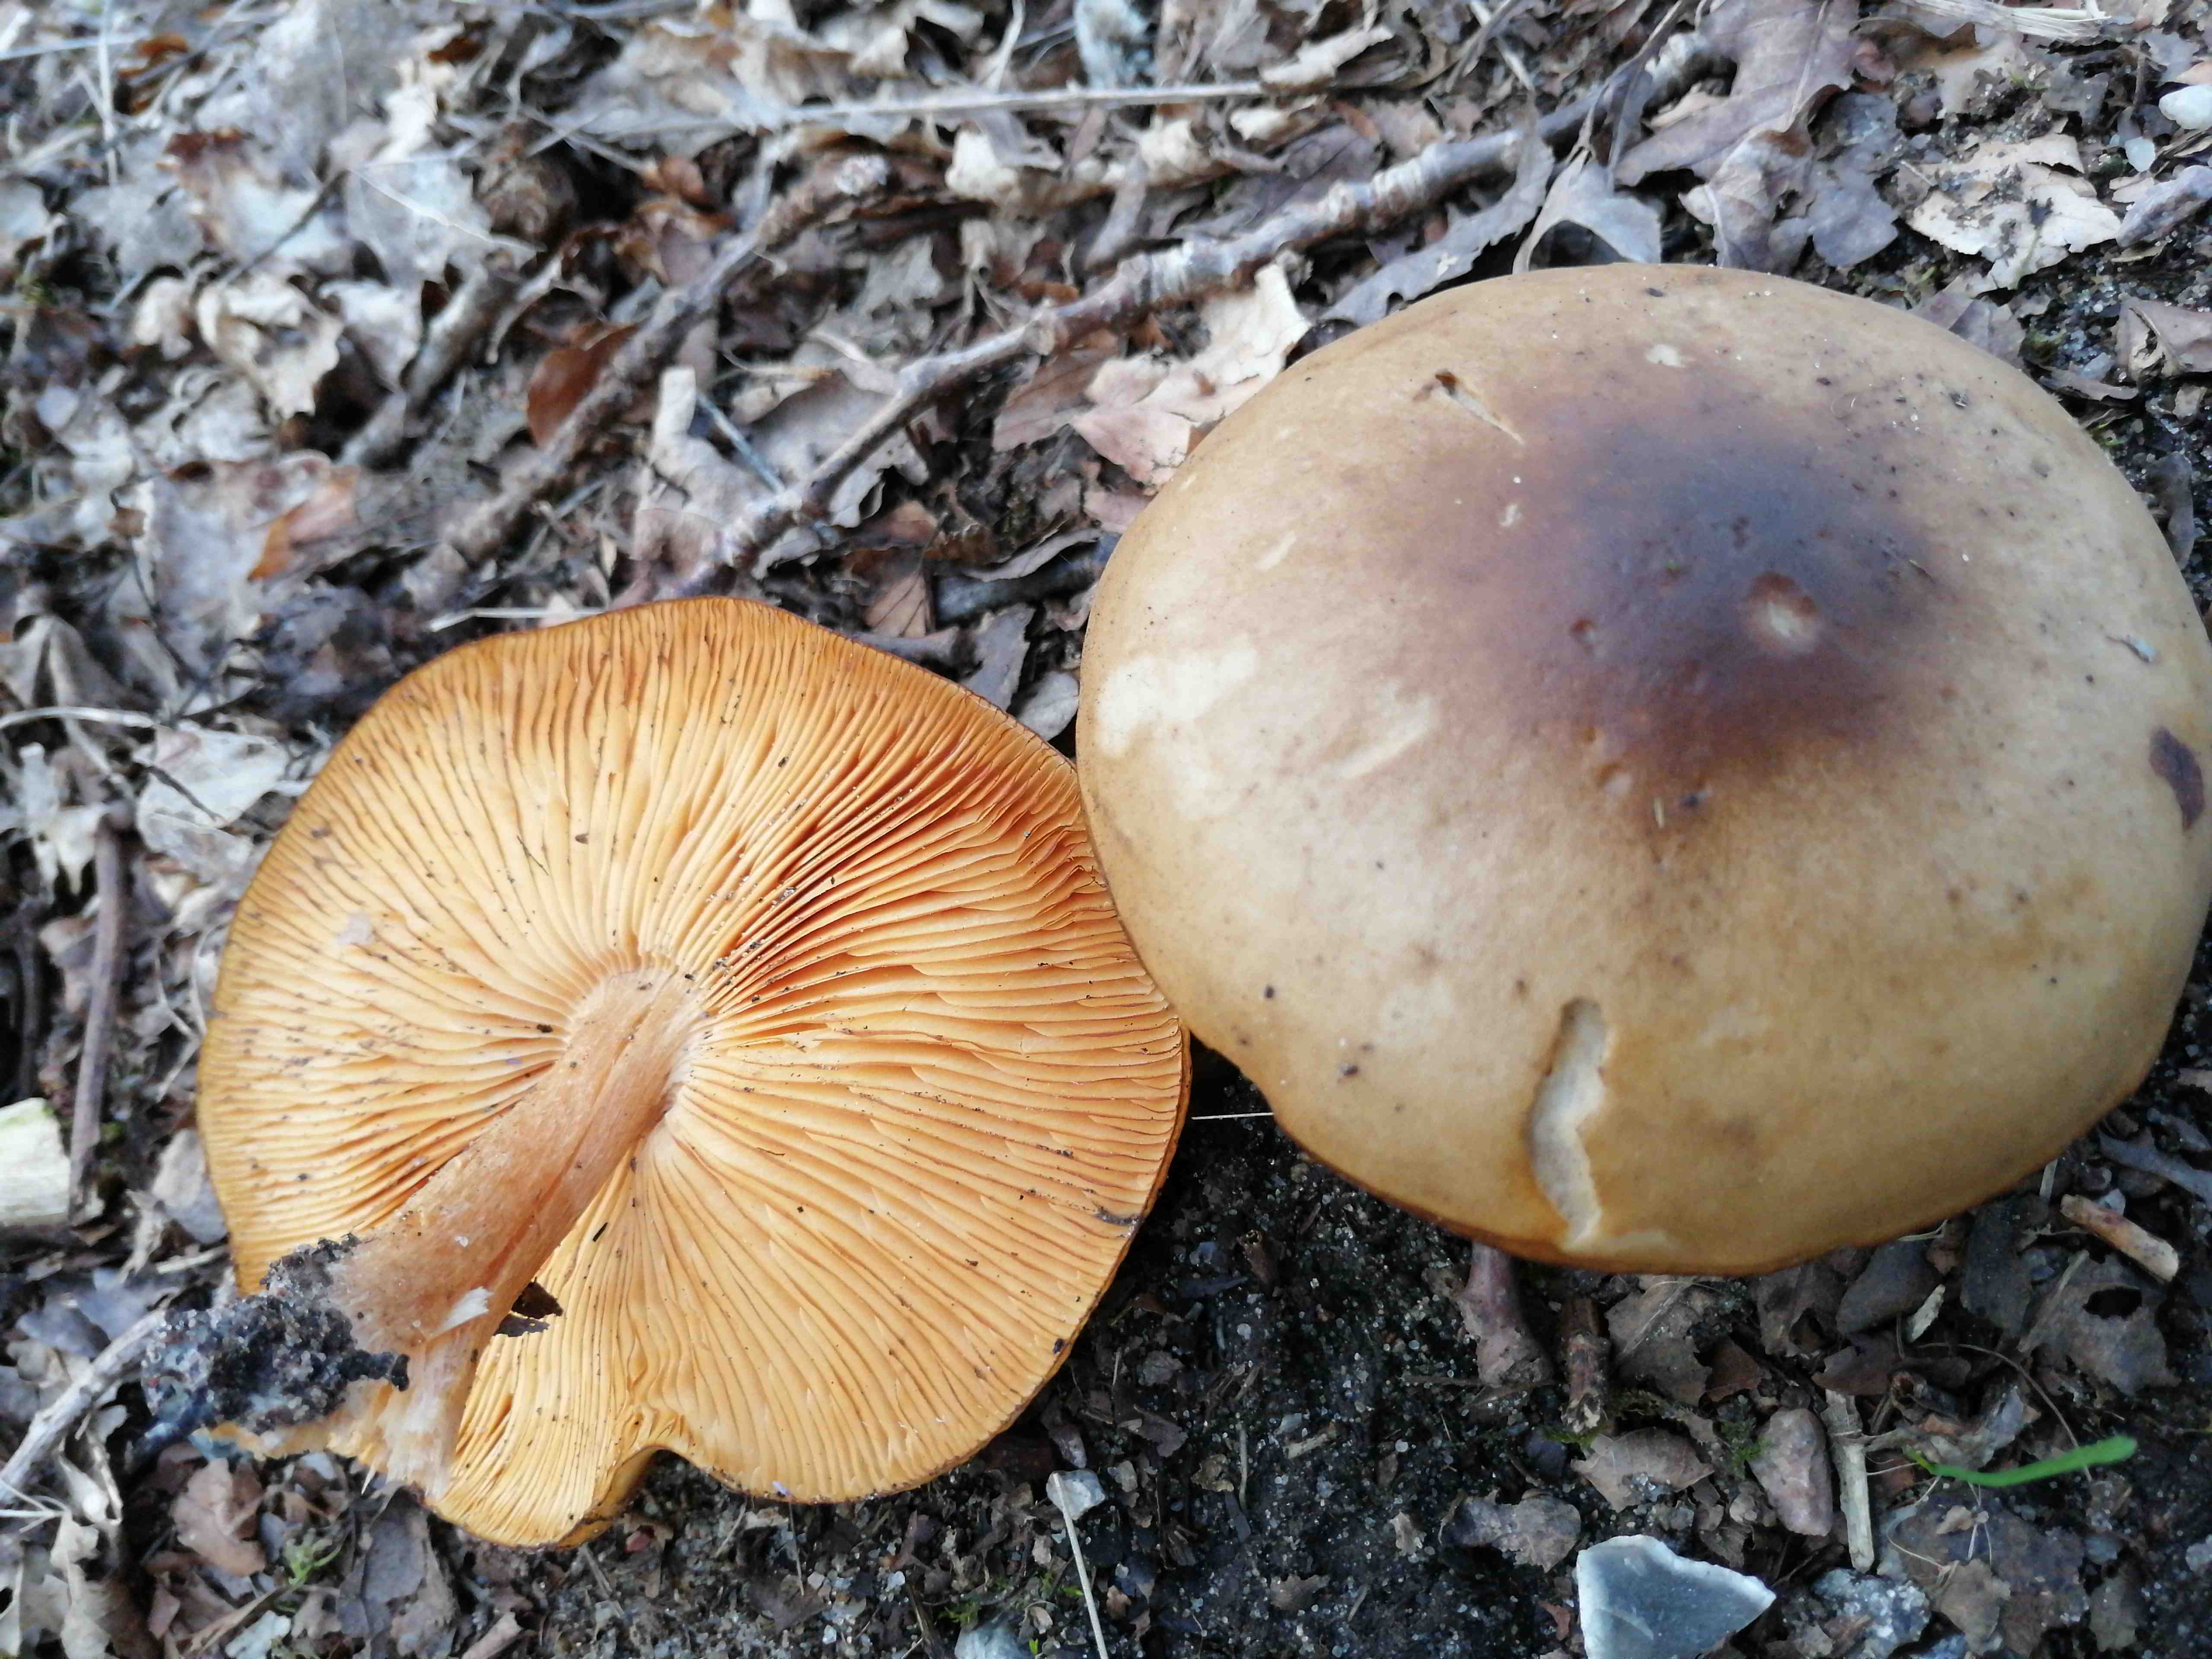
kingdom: Fungi
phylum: Basidiomycota
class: Agaricomycetes
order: Agaricales
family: Tricholomataceae
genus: Melanoleuca
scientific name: Melanoleuca cognata
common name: gyldengrå munkehat
